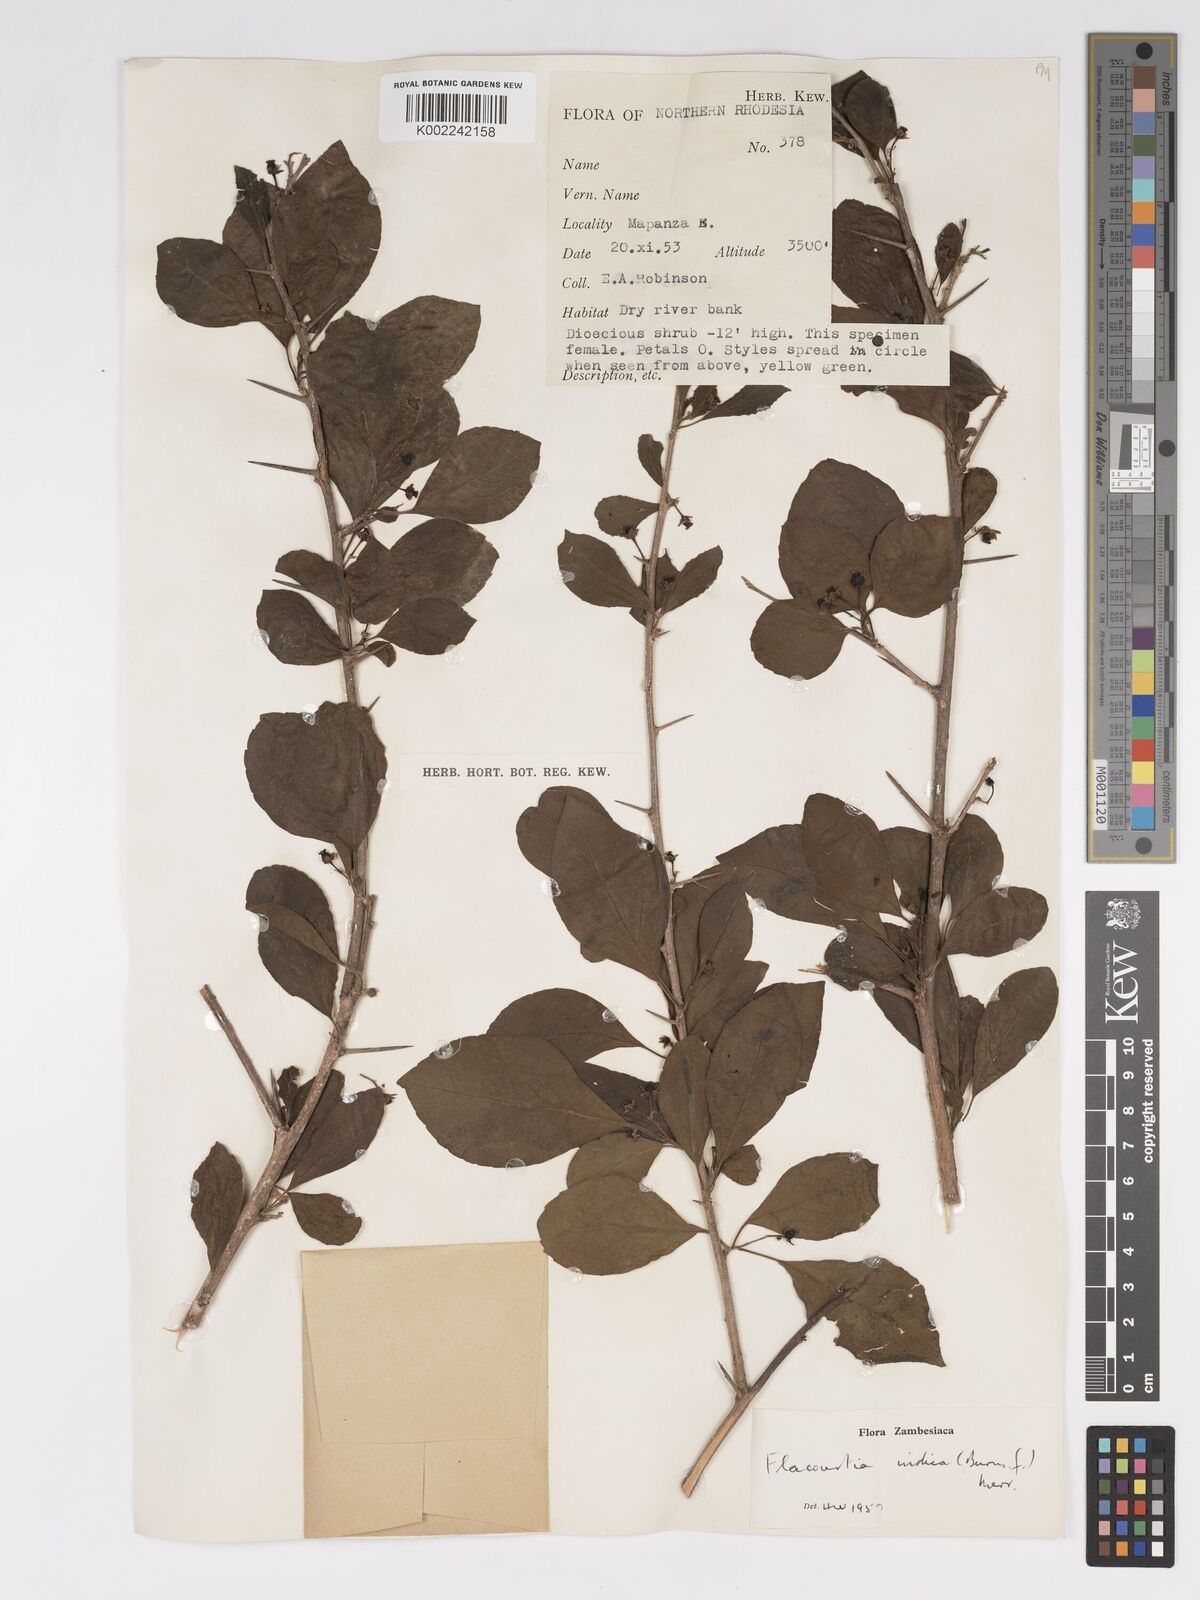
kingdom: Plantae
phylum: Tracheophyta
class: Magnoliopsida
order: Malpighiales
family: Salicaceae
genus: Flacourtia
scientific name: Flacourtia indica
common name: Governor's plum
